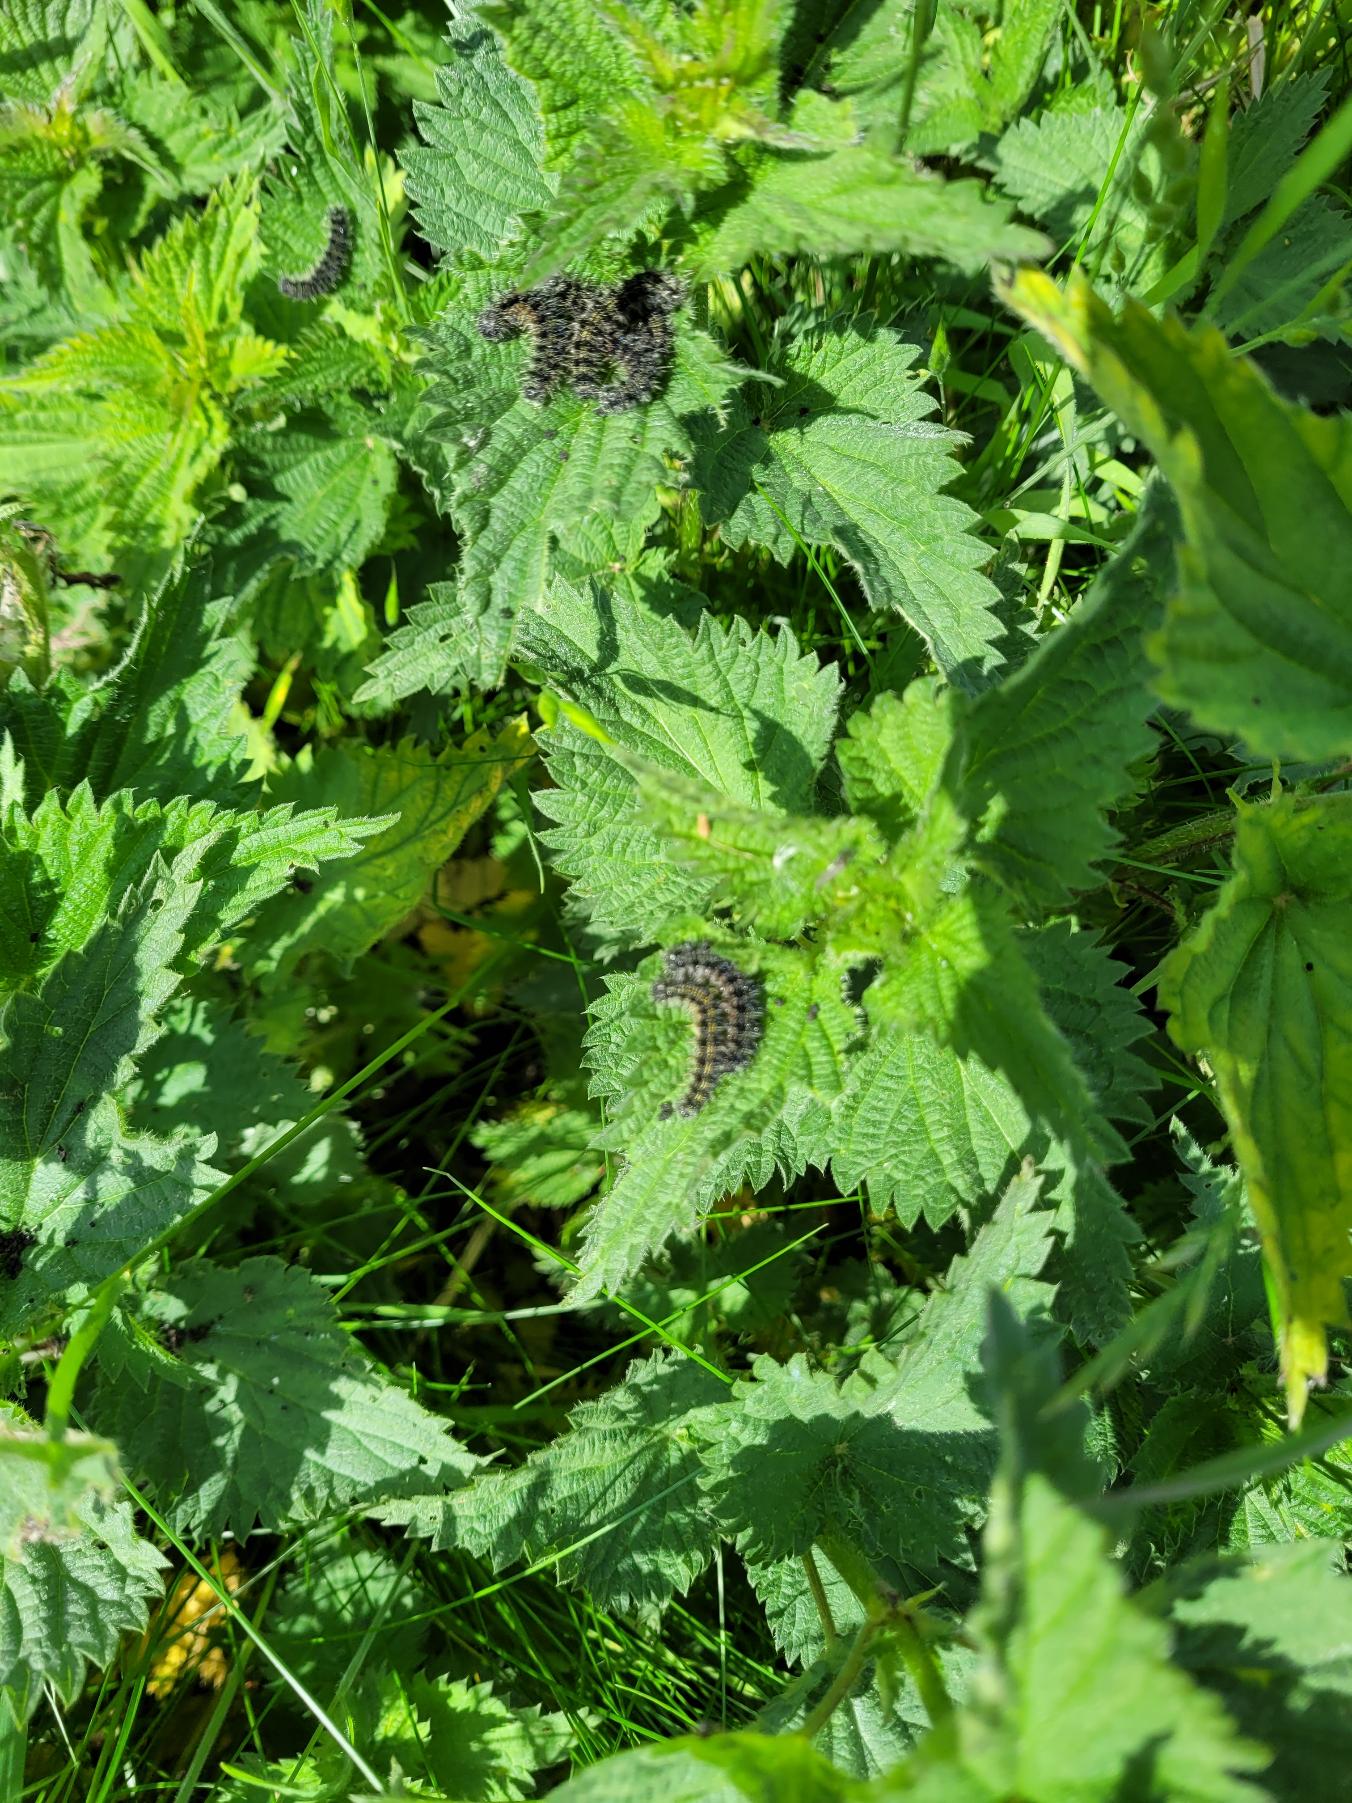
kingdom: Animalia
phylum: Arthropoda
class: Insecta
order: Lepidoptera
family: Nymphalidae
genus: Aglais
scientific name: Aglais urticae
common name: Nældens takvinge
